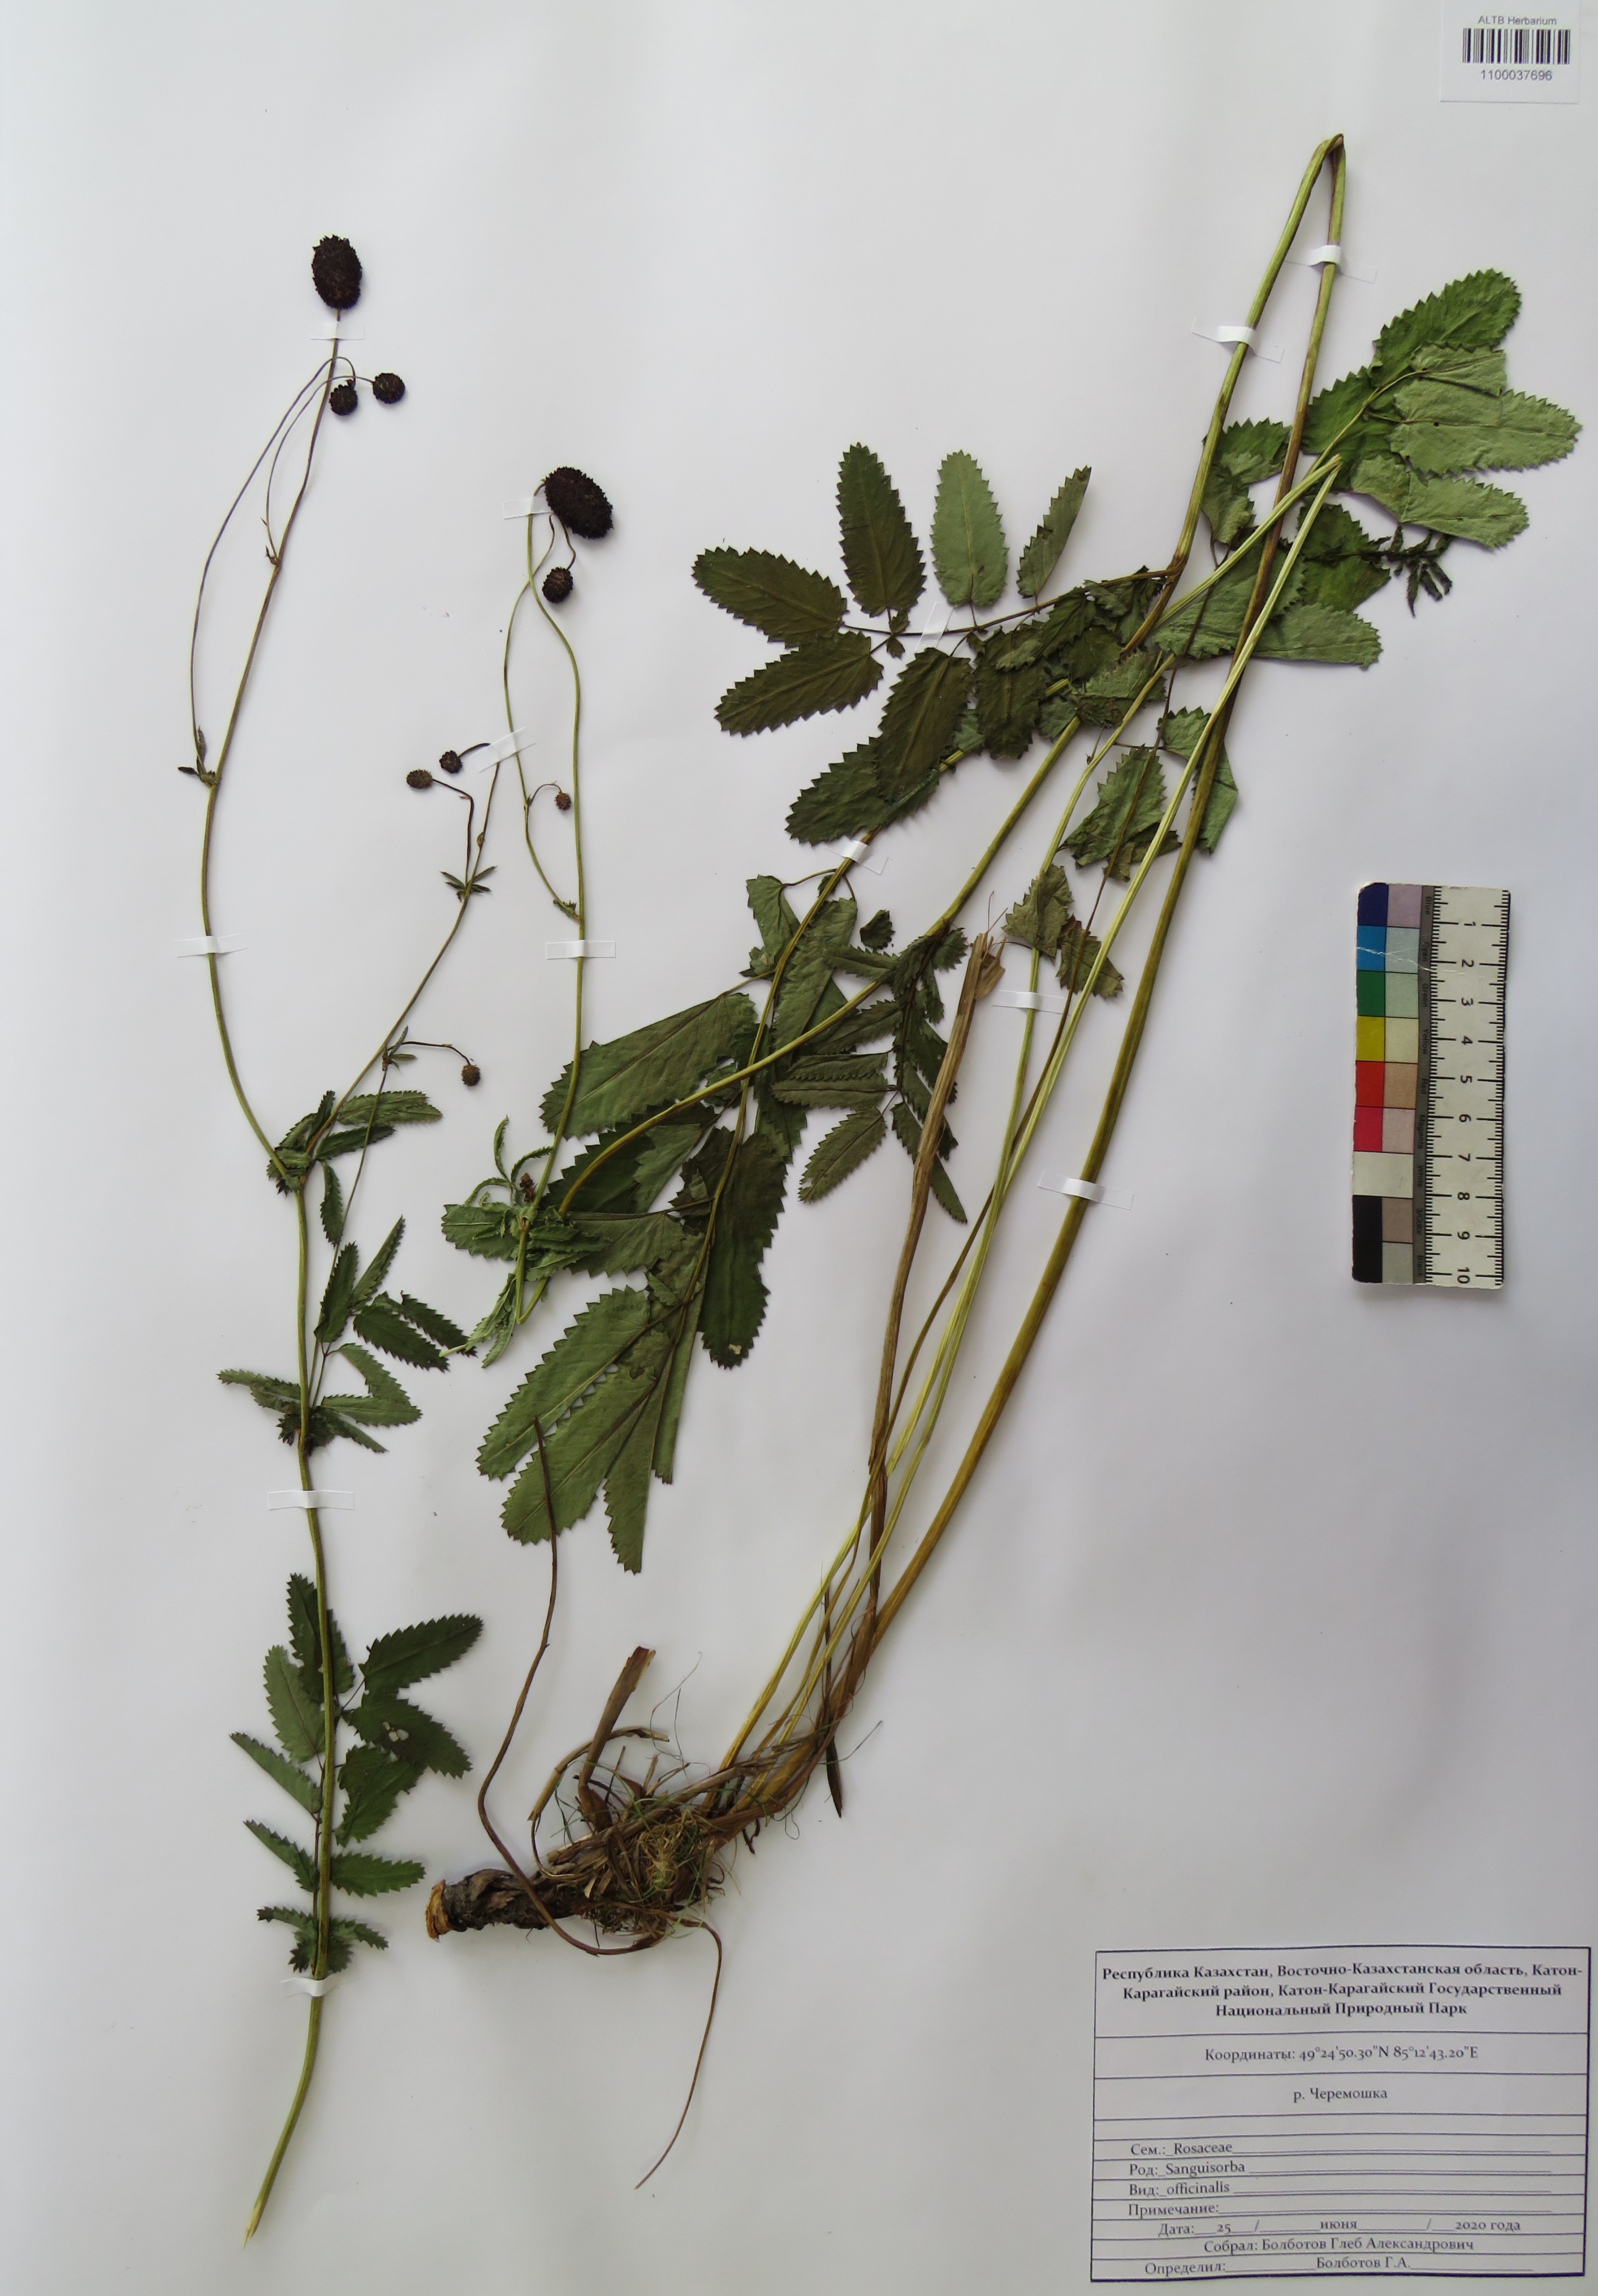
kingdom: Plantae
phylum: Tracheophyta
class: Magnoliopsida
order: Rosales
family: Rosaceae
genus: Sanguisorba
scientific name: Sanguisorba officinalis
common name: Great burnet
